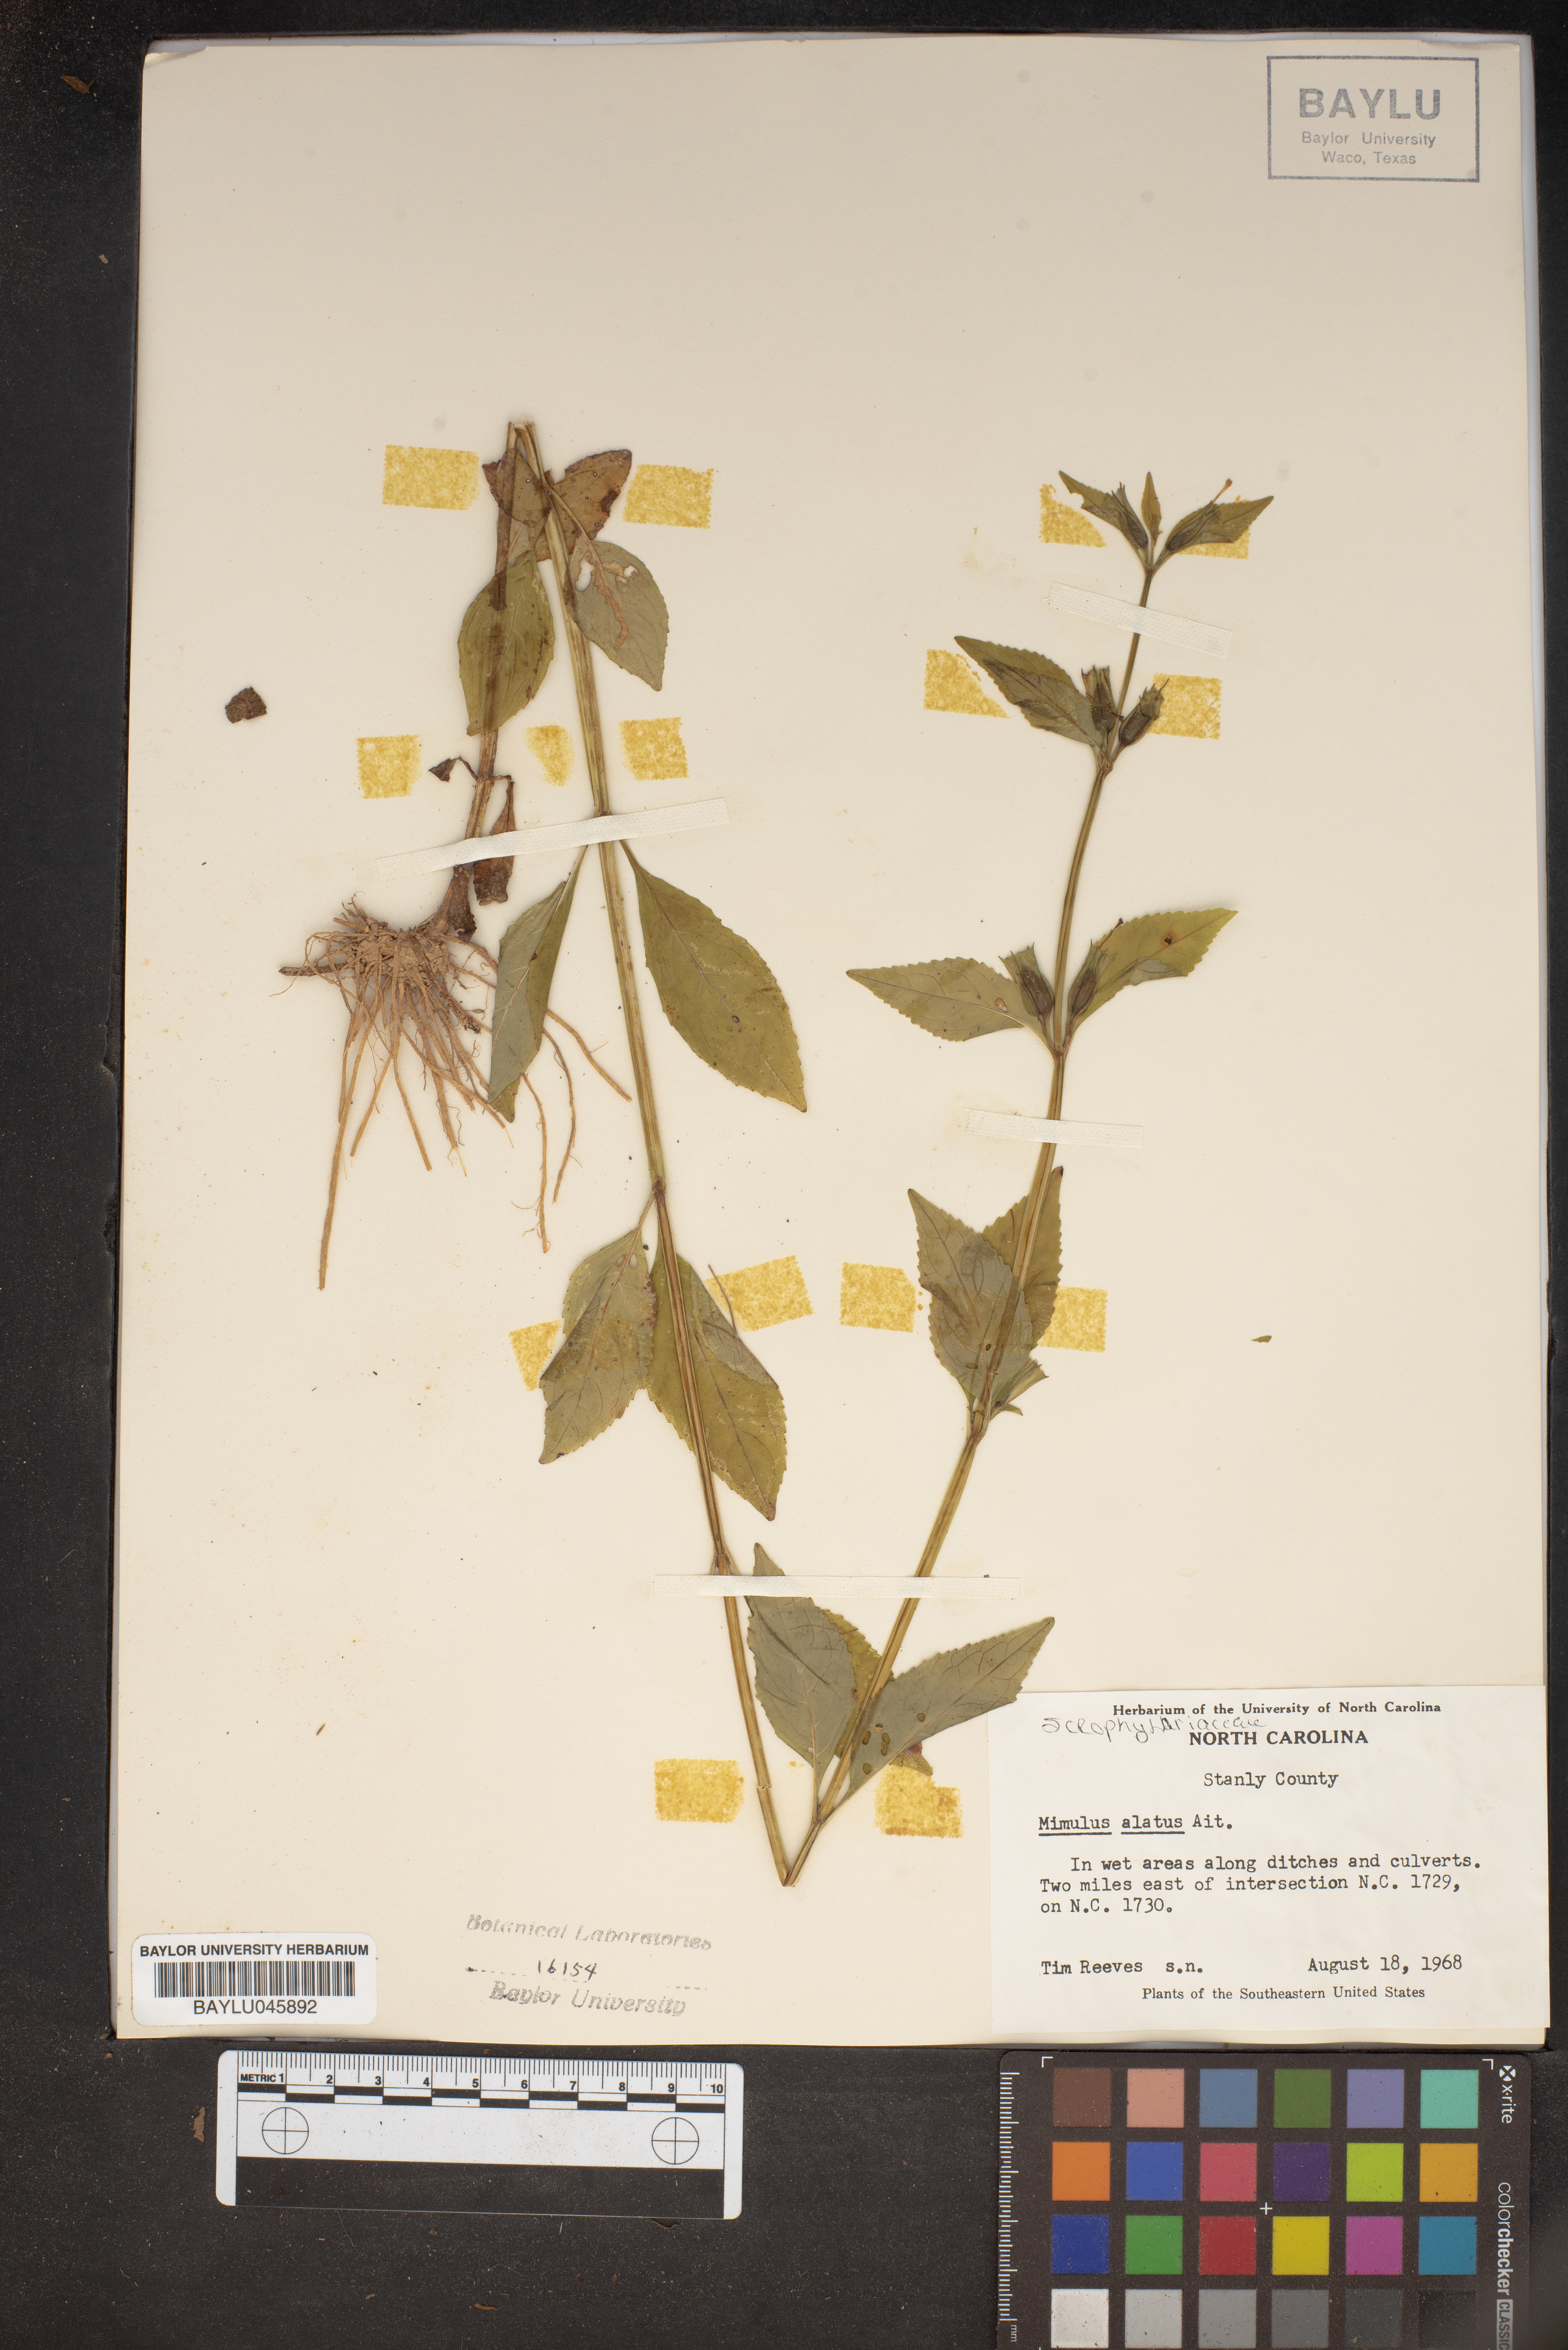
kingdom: Plantae
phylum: Tracheophyta
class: Magnoliopsida
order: Lamiales
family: Phrymaceae
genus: Mimulus
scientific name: Mimulus alatus
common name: Sharp-wing monkey-flower
